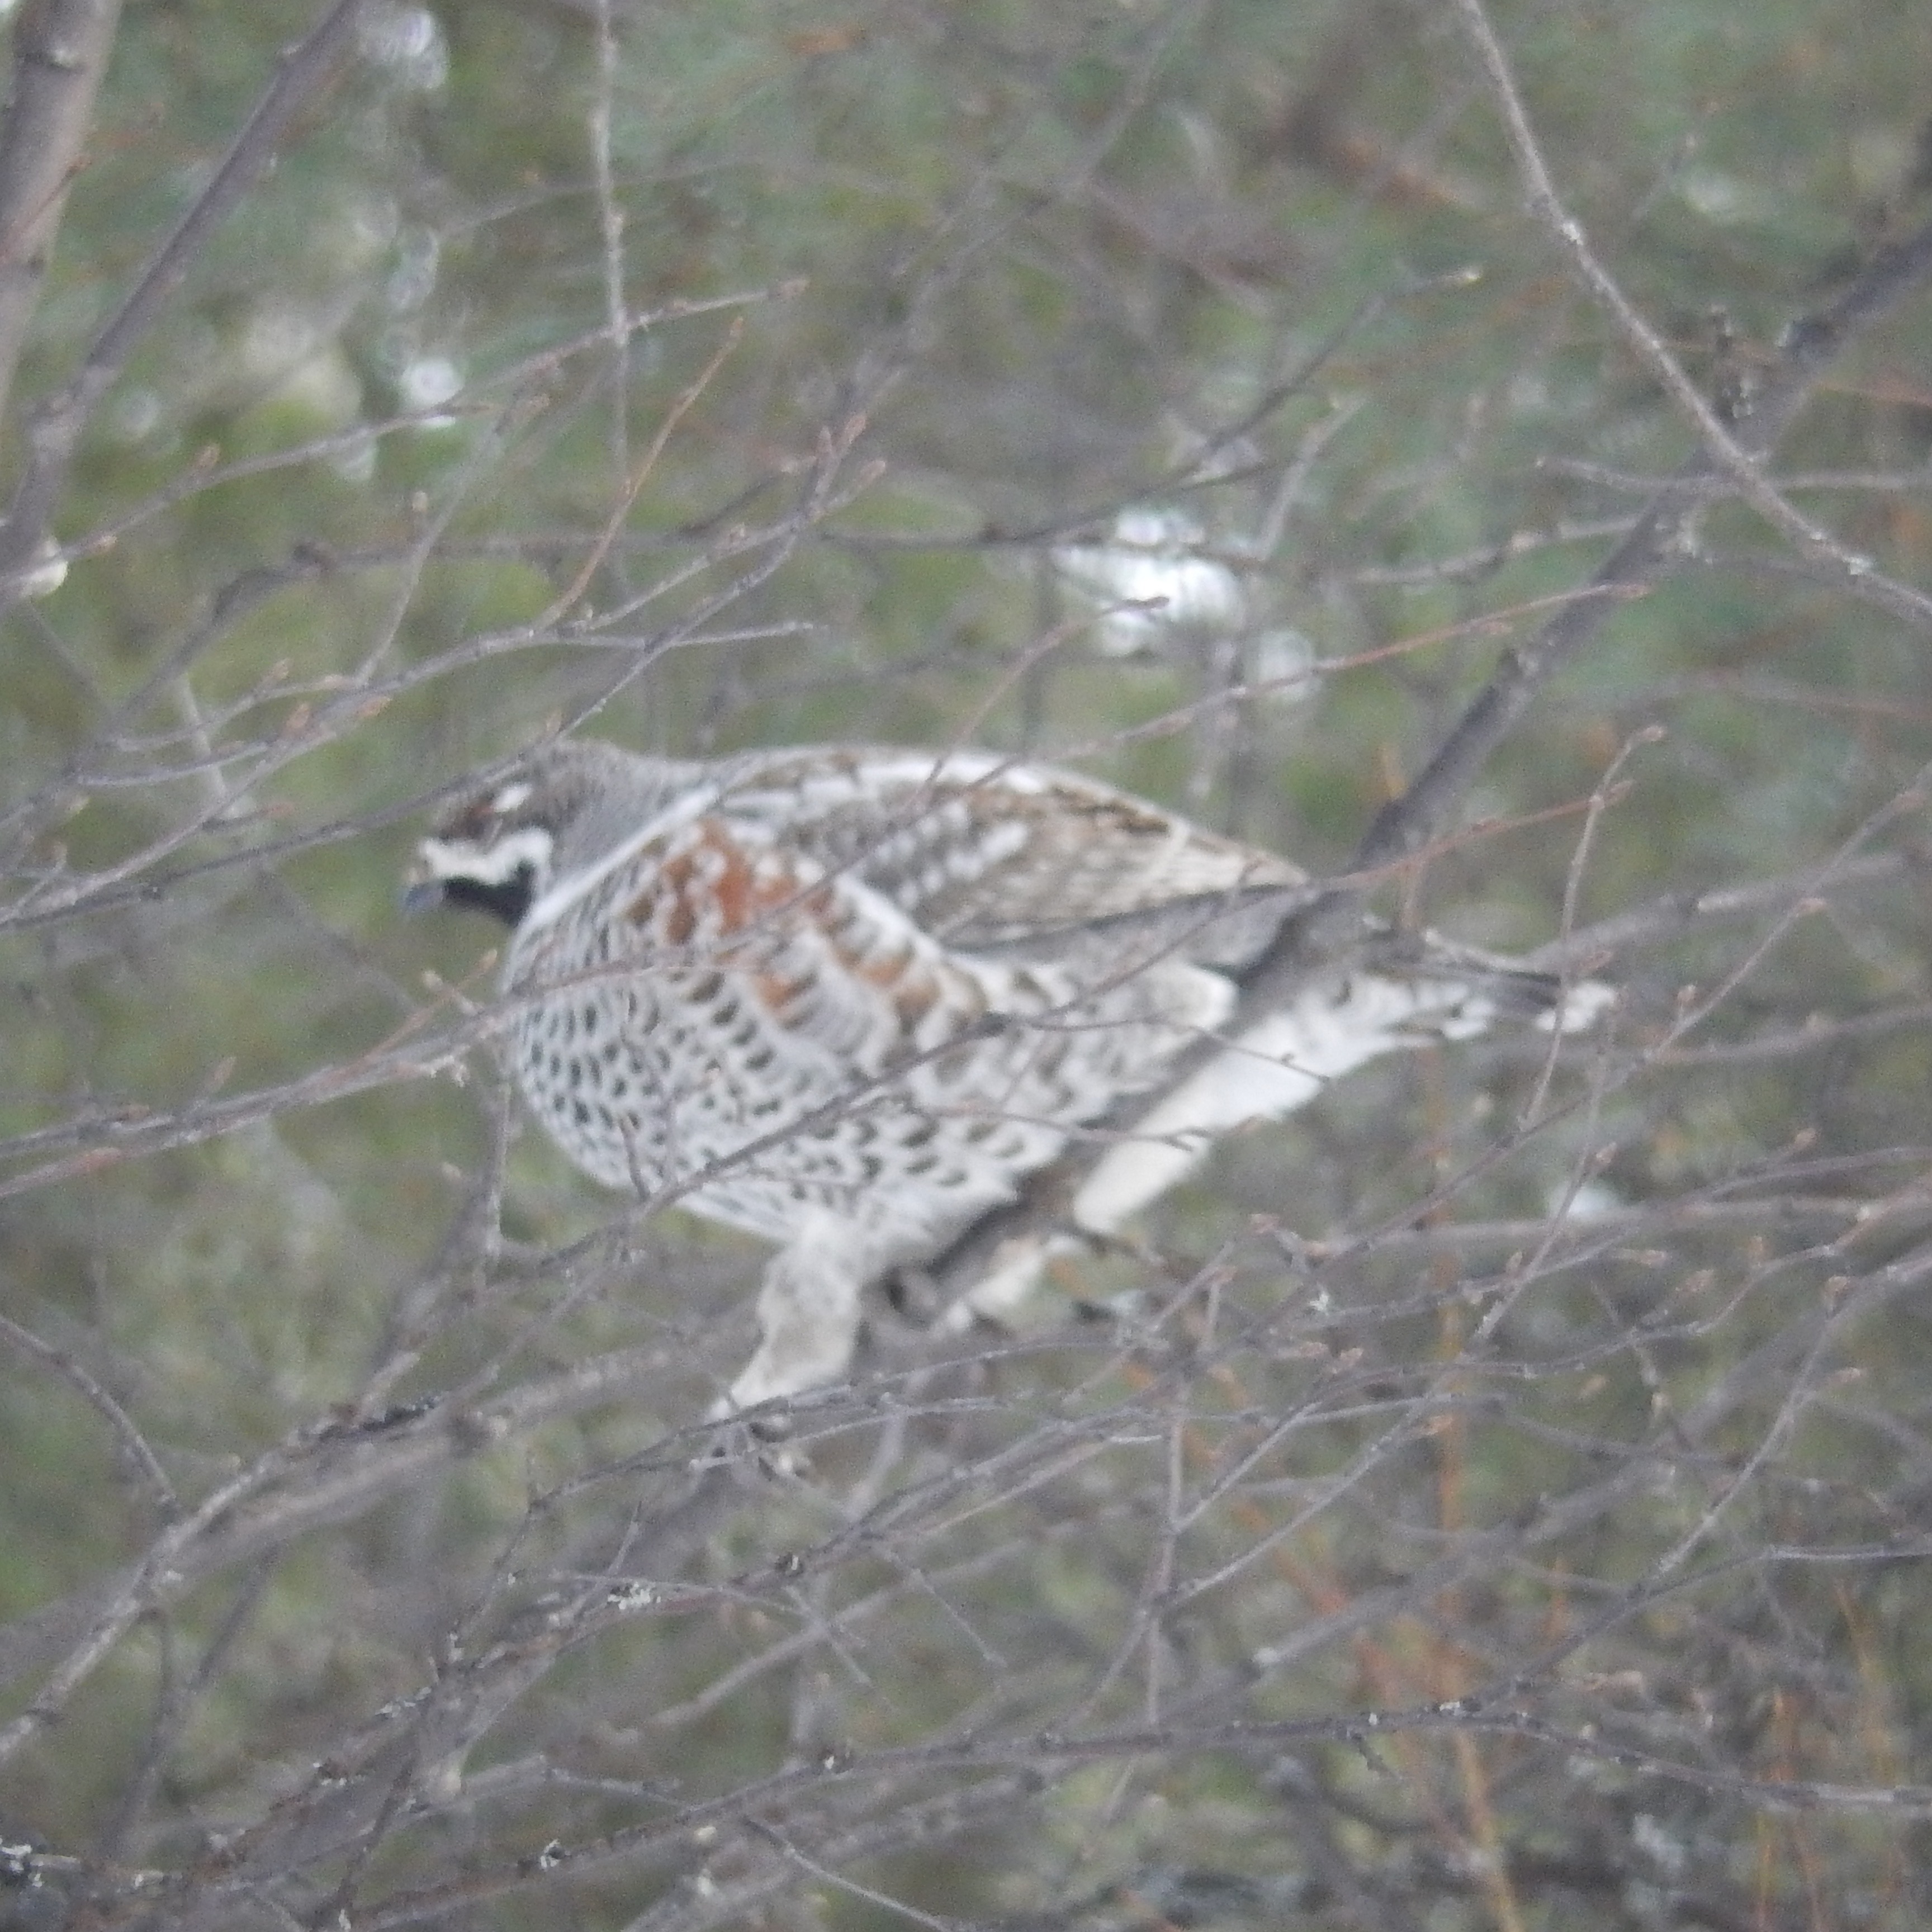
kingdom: Animalia
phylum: Chordata
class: Aves
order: Galliformes
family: Phasianidae
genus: Tetrastes
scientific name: Tetrastes bonasia
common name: Hazel grouse
